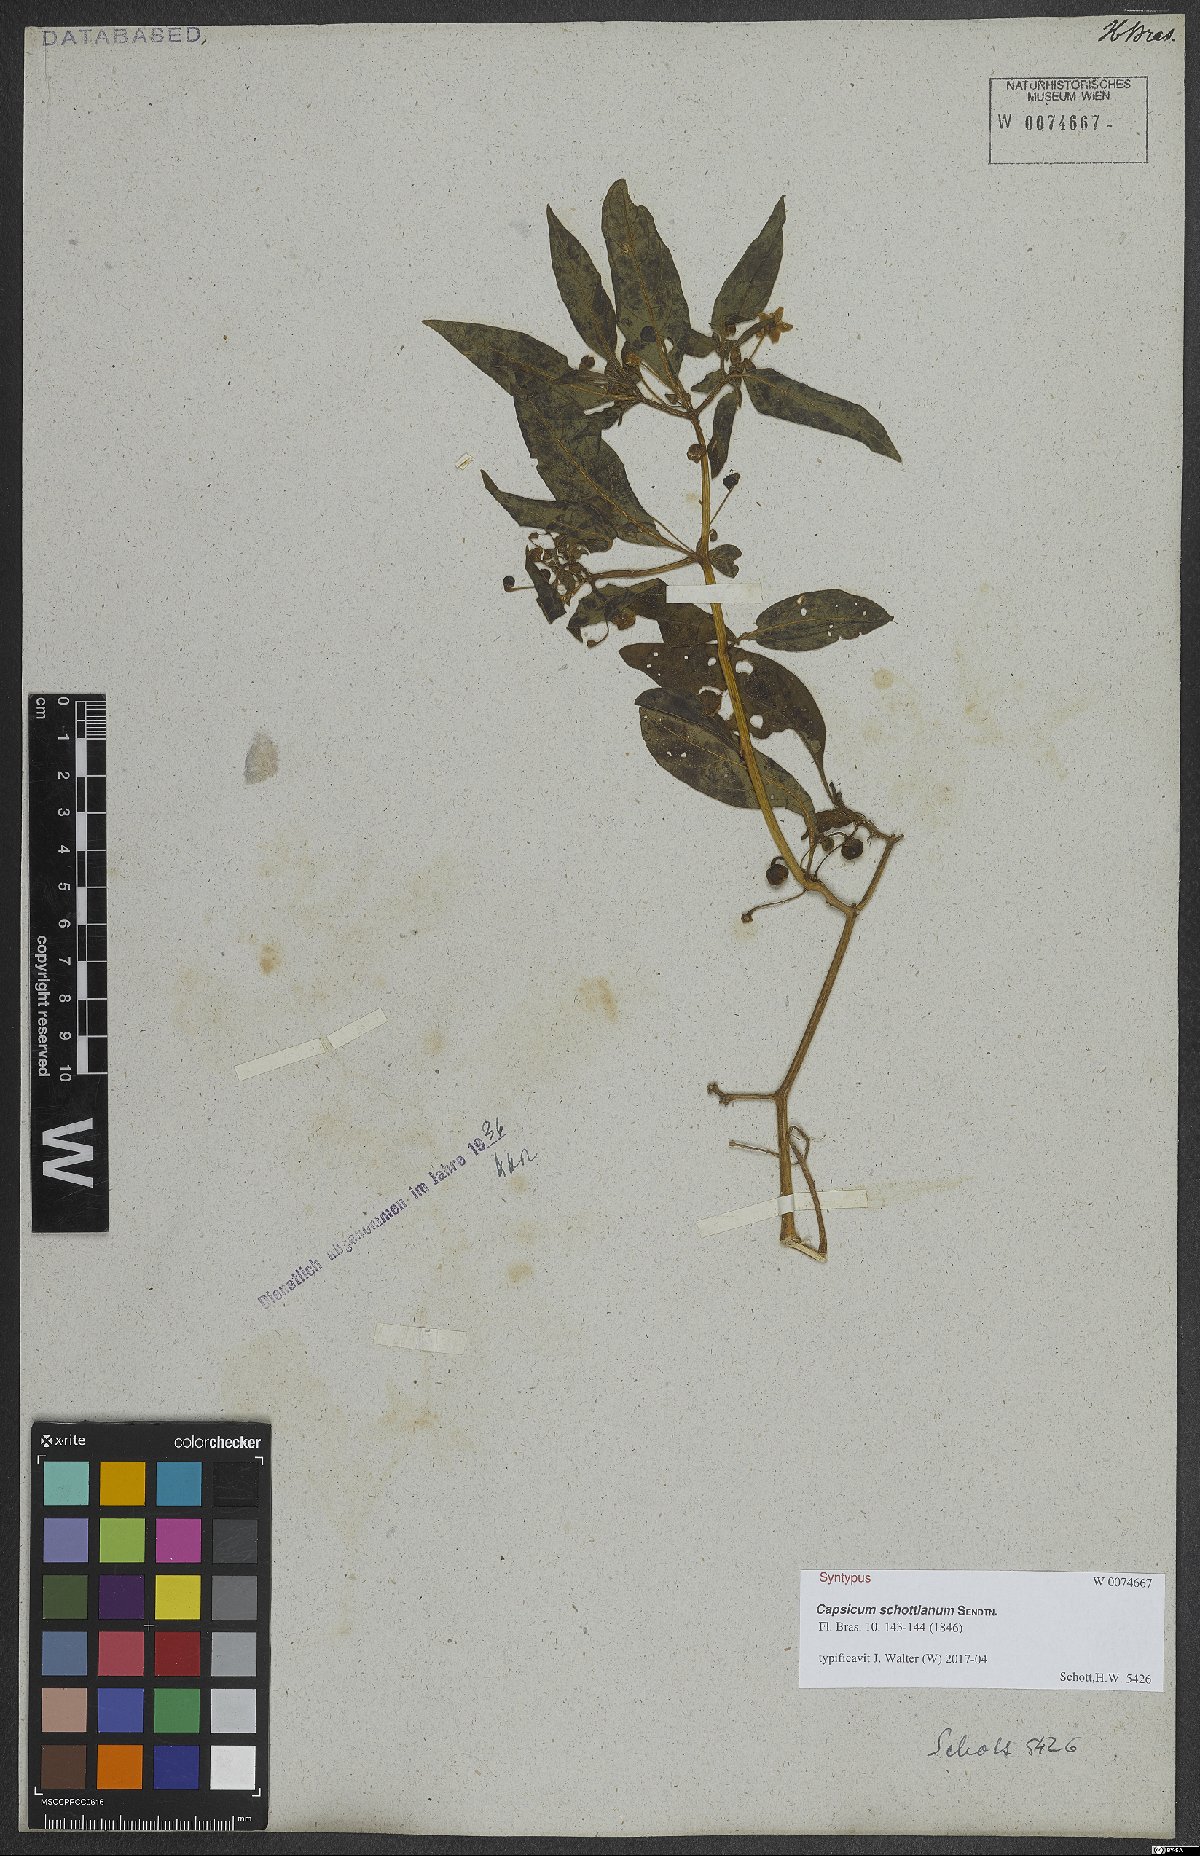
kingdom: Plantae
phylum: Tracheophyta
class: Magnoliopsida
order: Solanales
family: Solanaceae
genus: Capsicum
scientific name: Capsicum schottianum
